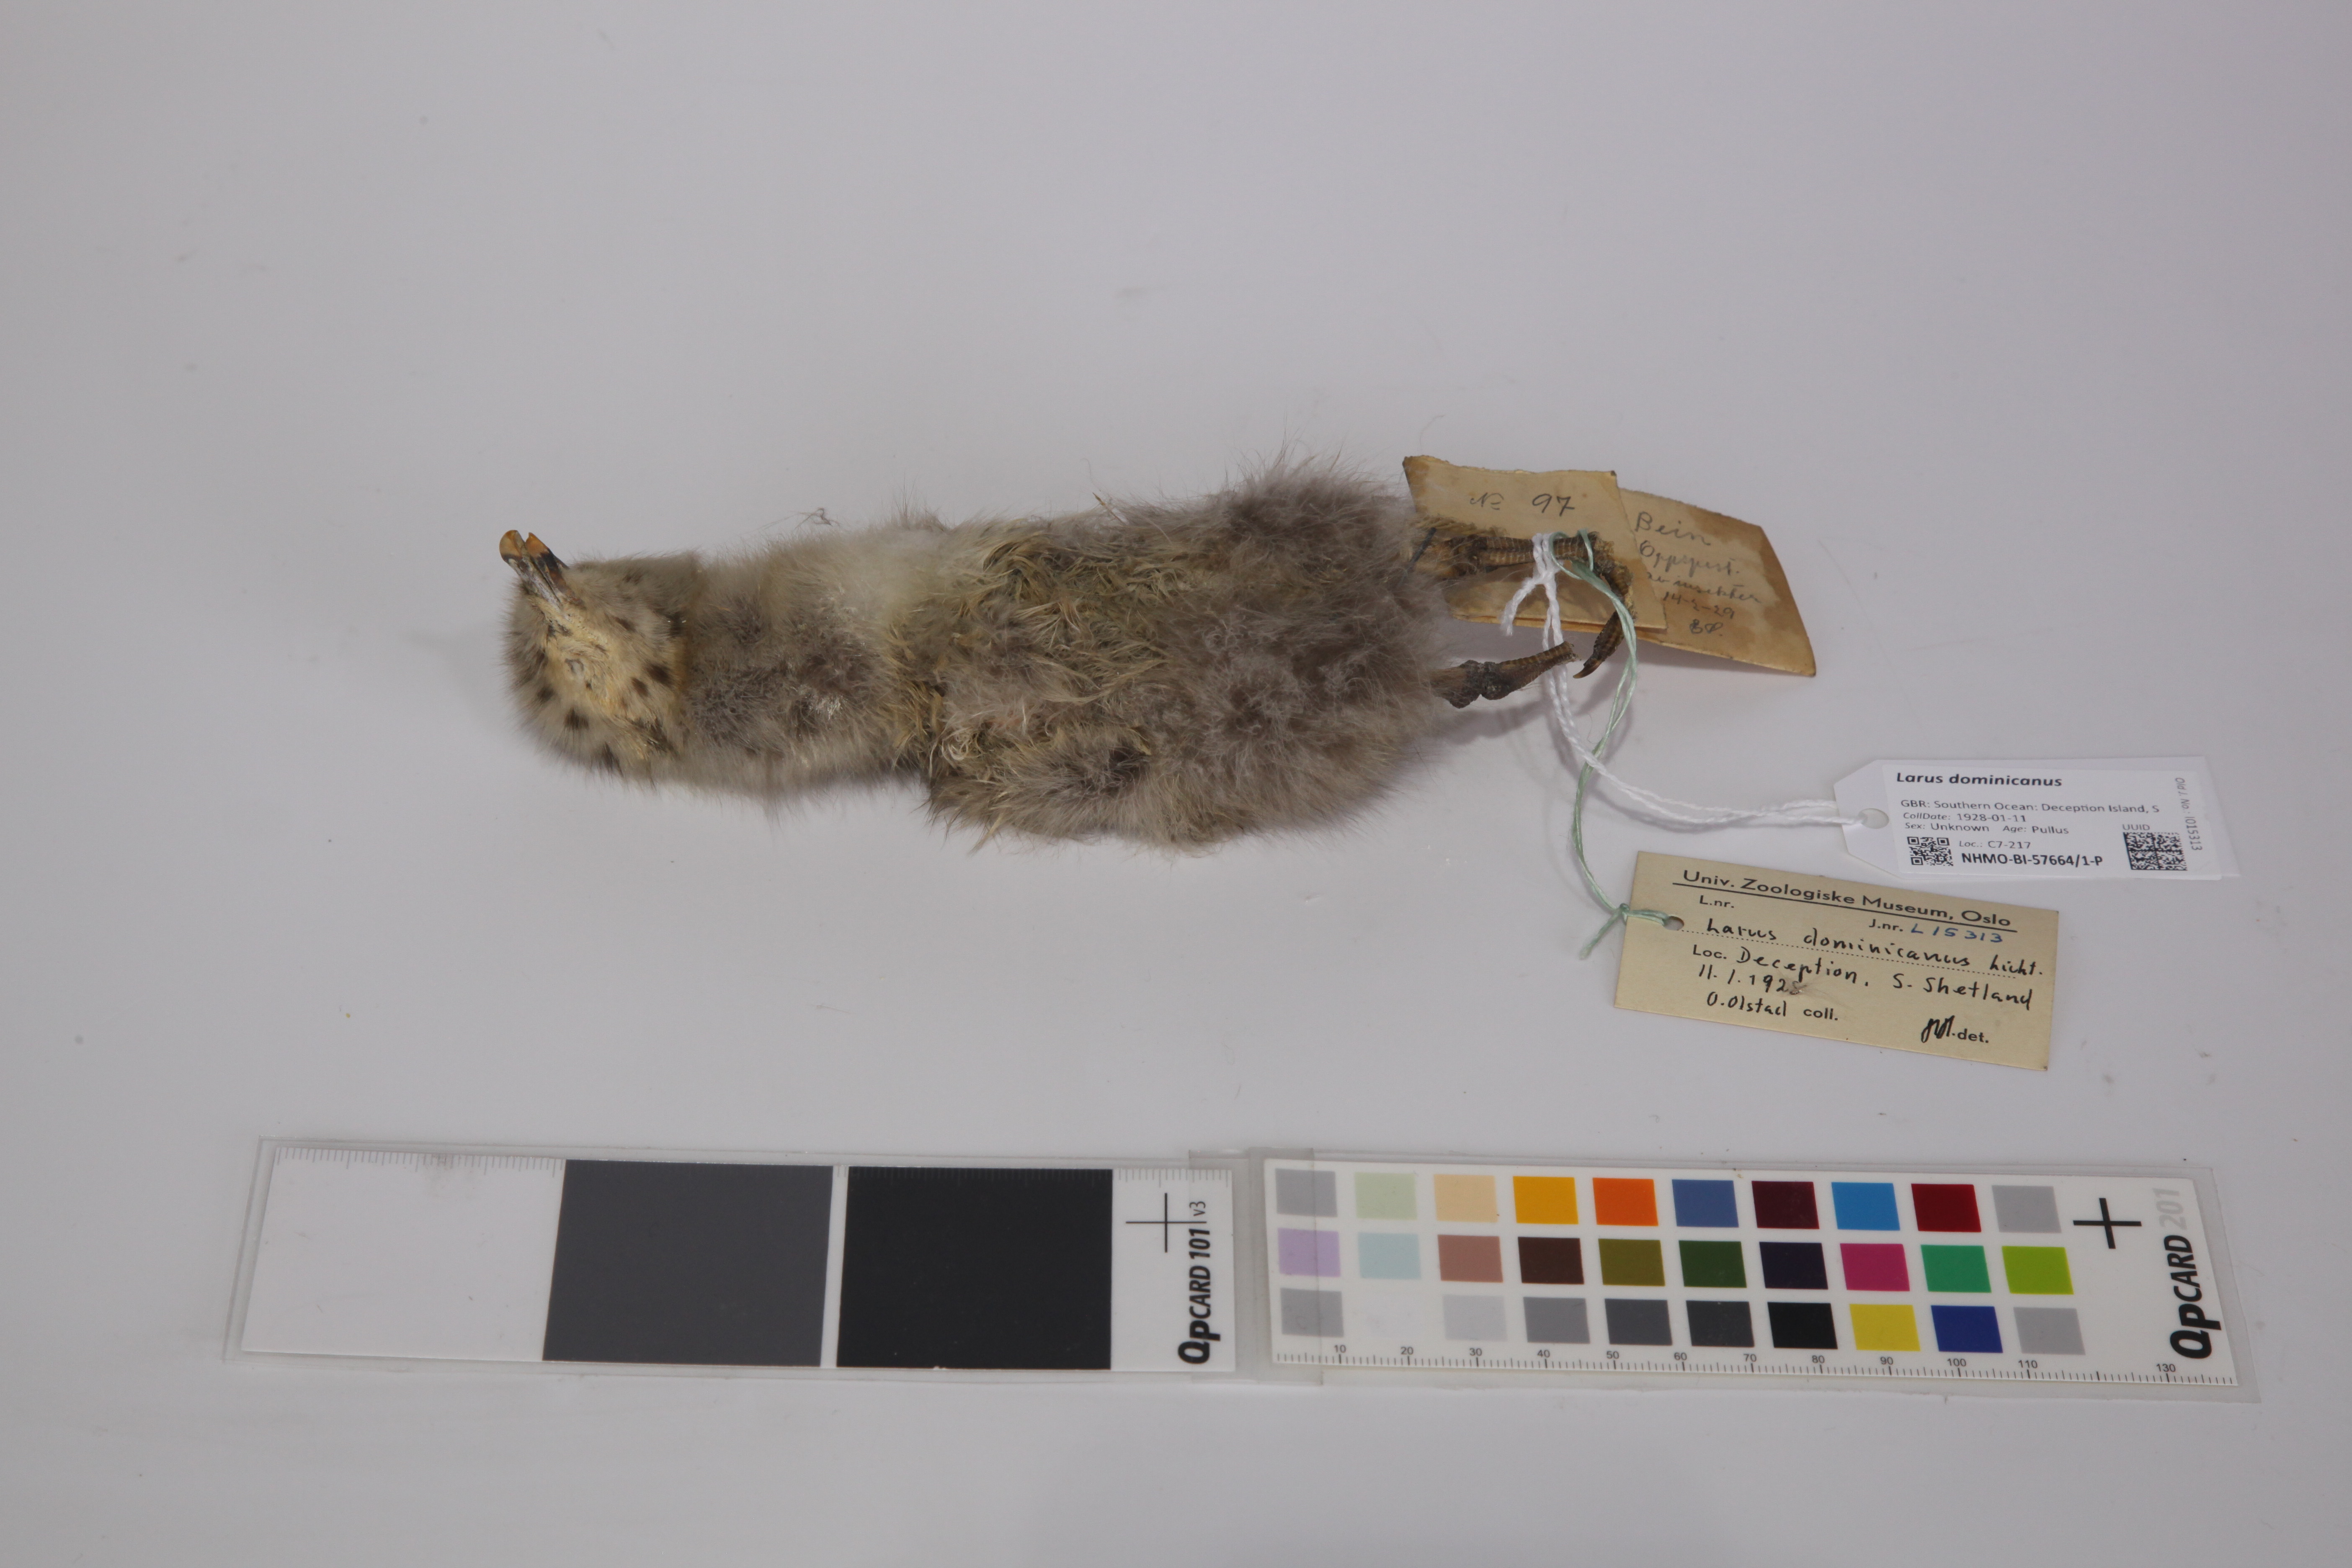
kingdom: Animalia
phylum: Chordata
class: Aves
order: Charadriiformes
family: Laridae
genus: Larus
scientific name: Larus dominicanus
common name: Kelp gull
